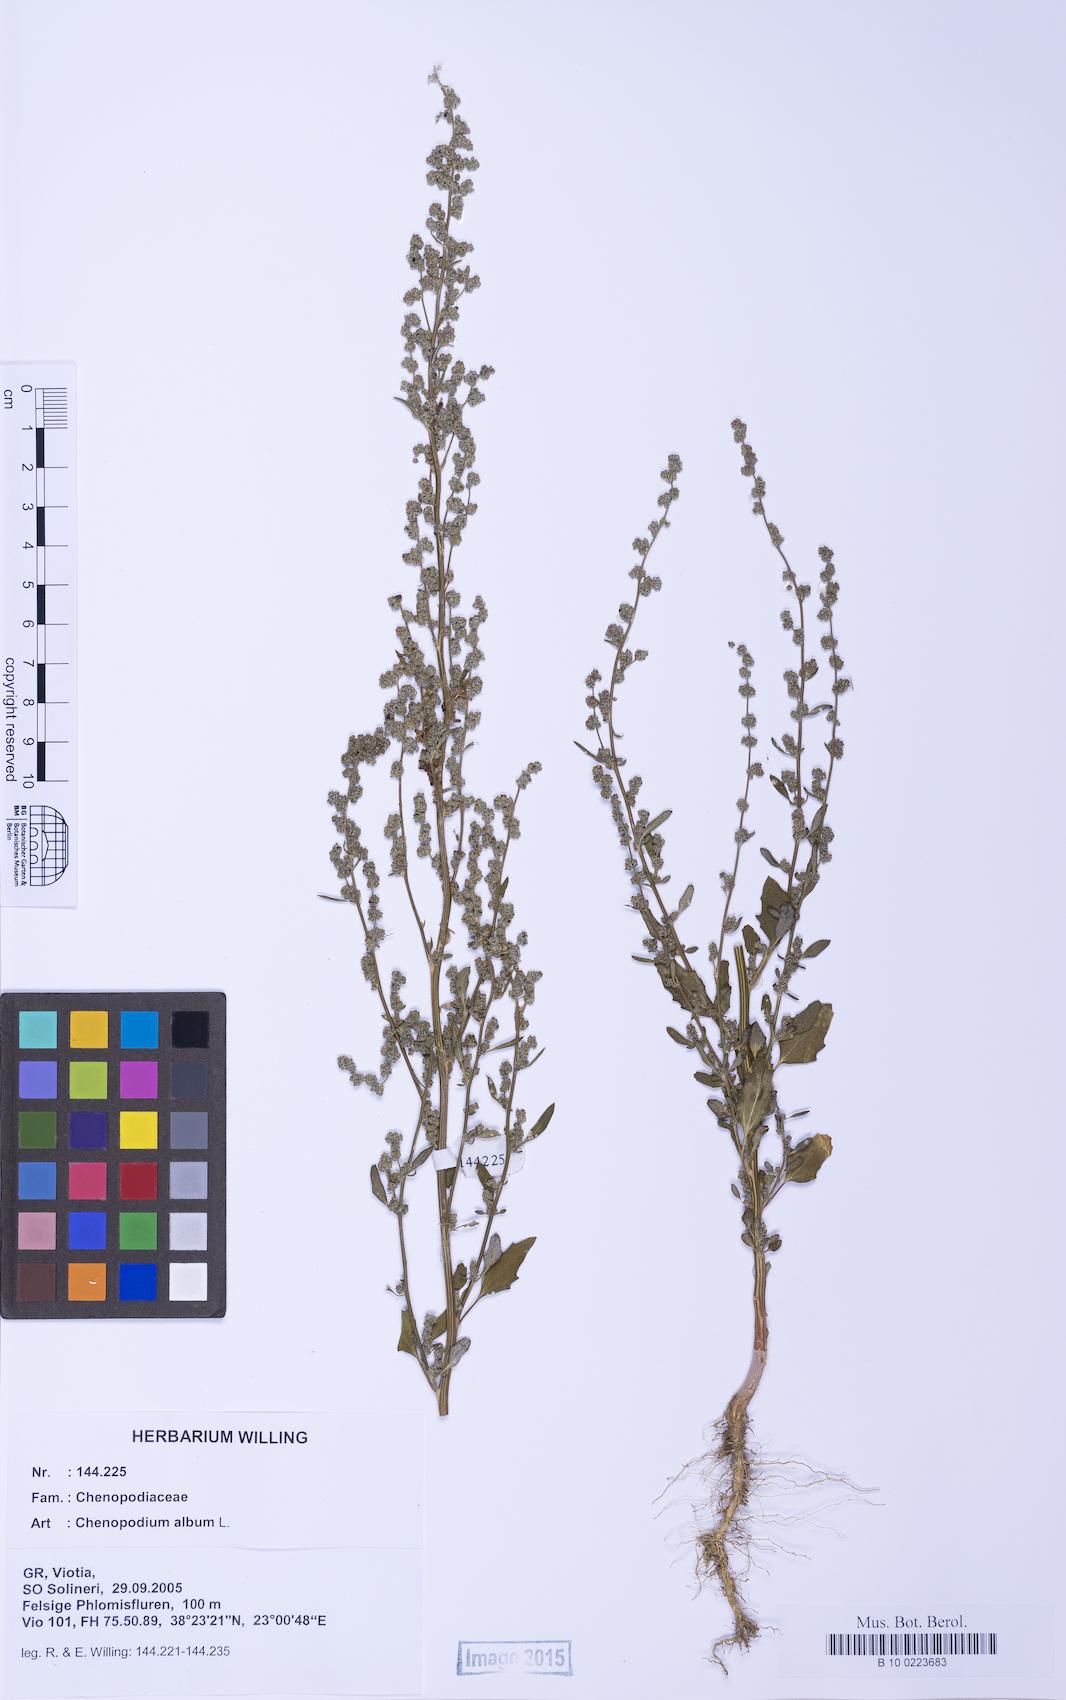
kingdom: Plantae
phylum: Tracheophyta
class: Magnoliopsida
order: Caryophyllales
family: Amaranthaceae
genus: Chenopodium
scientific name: Chenopodium album
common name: Fat-hen
